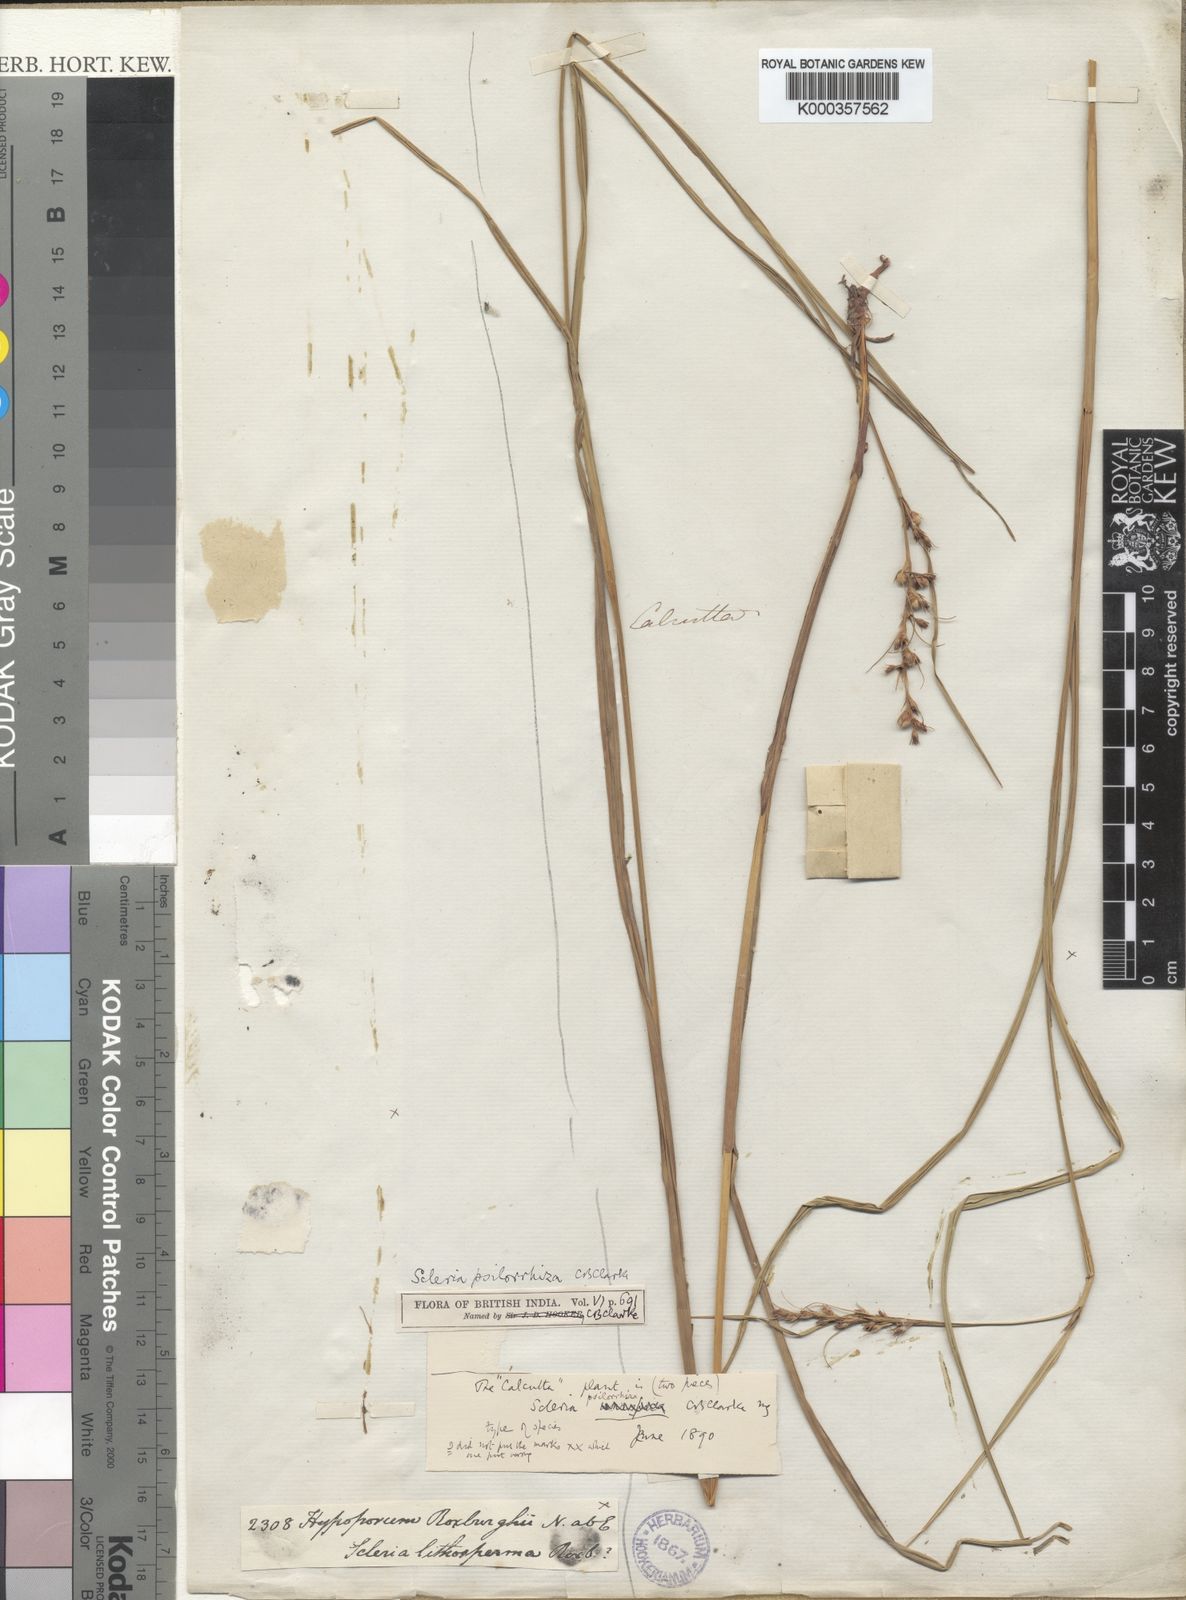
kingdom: Plantae
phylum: Tracheophyta
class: Liliopsida
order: Poales
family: Cyperaceae
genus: Scleria
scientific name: Scleria
